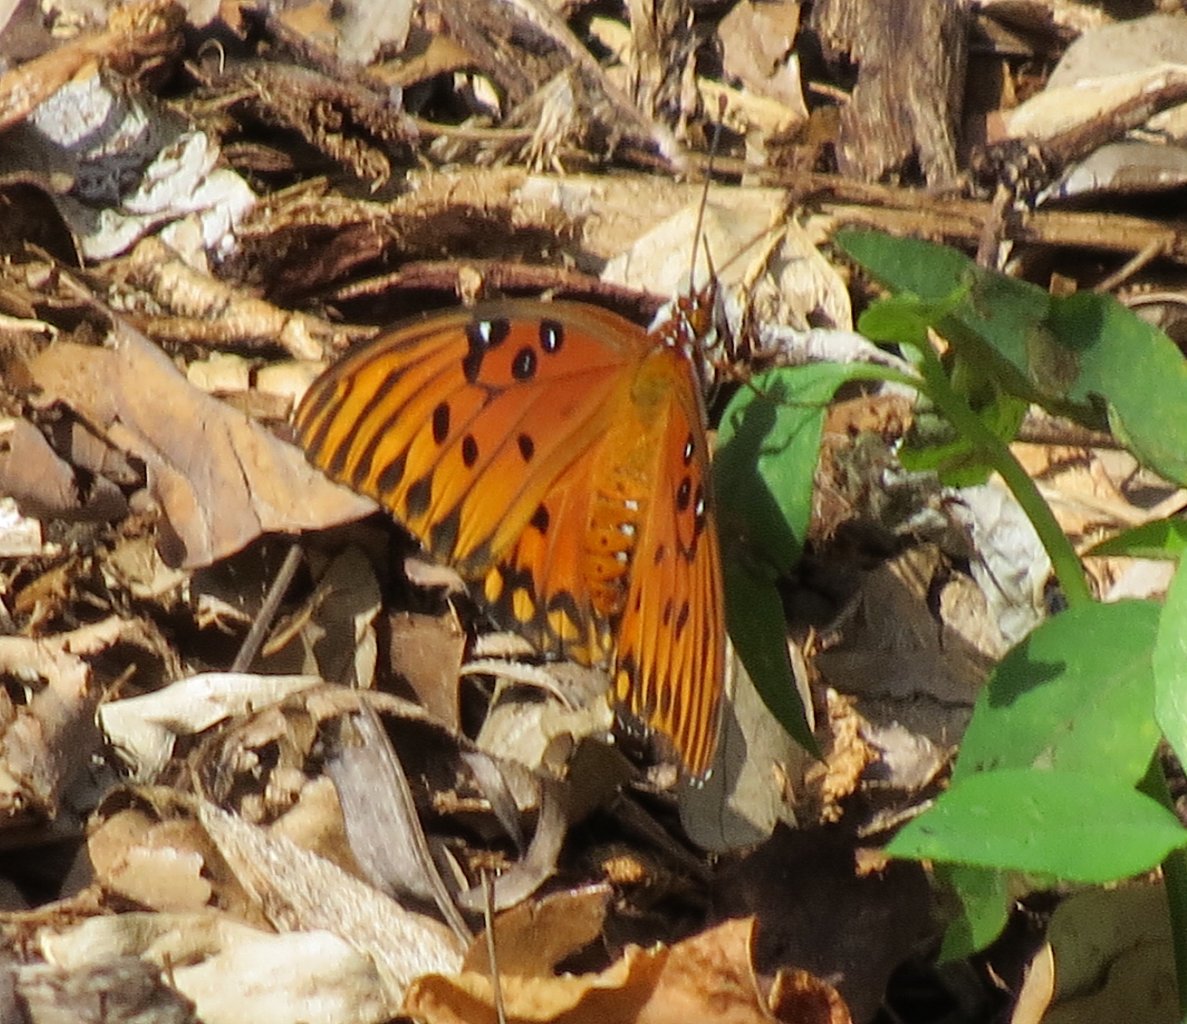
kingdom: Animalia
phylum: Arthropoda
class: Insecta
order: Lepidoptera
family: Nymphalidae
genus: Dione
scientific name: Dione vanillae
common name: Gulf Fritillary
